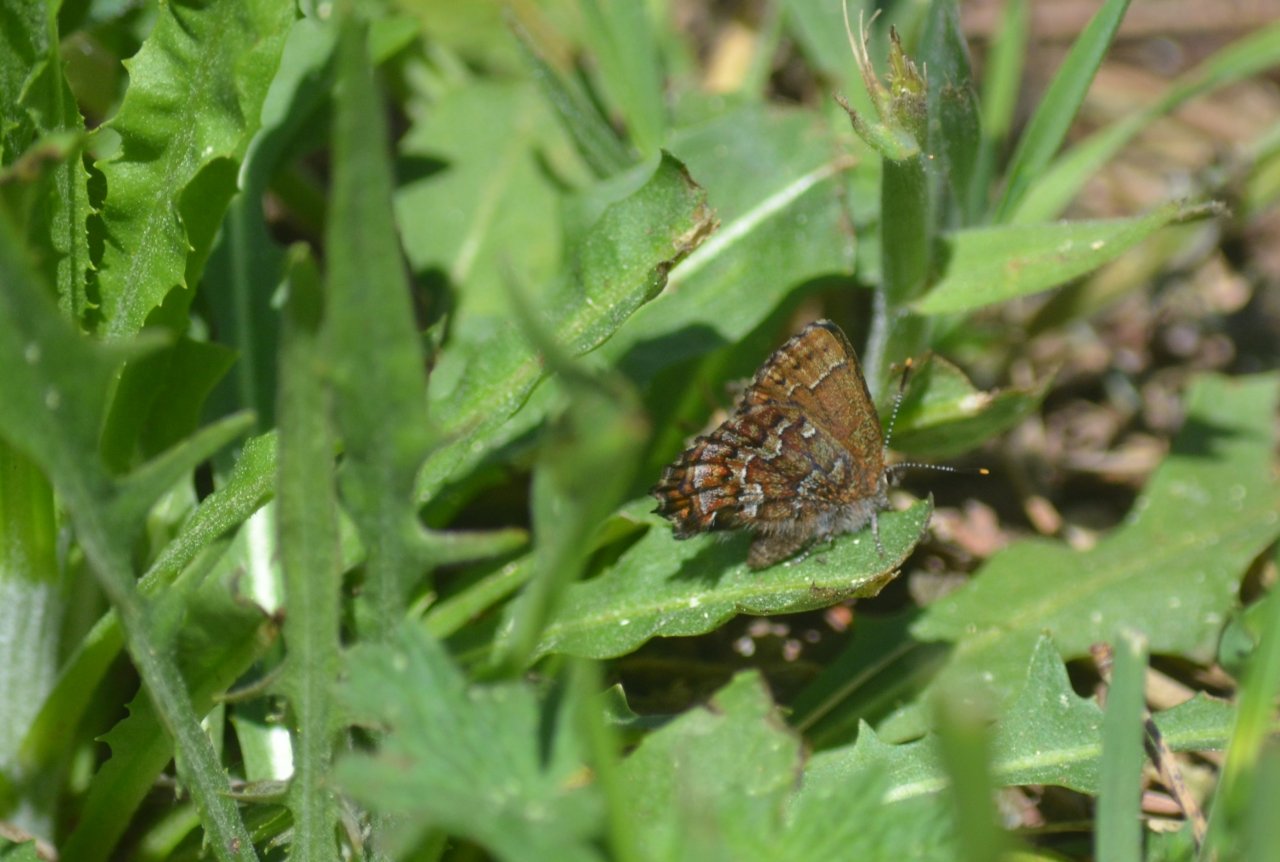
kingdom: Animalia
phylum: Arthropoda
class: Insecta
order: Lepidoptera
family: Lycaenidae
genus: Incisalia
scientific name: Incisalia niphon
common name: Eastern Pine Elfin
